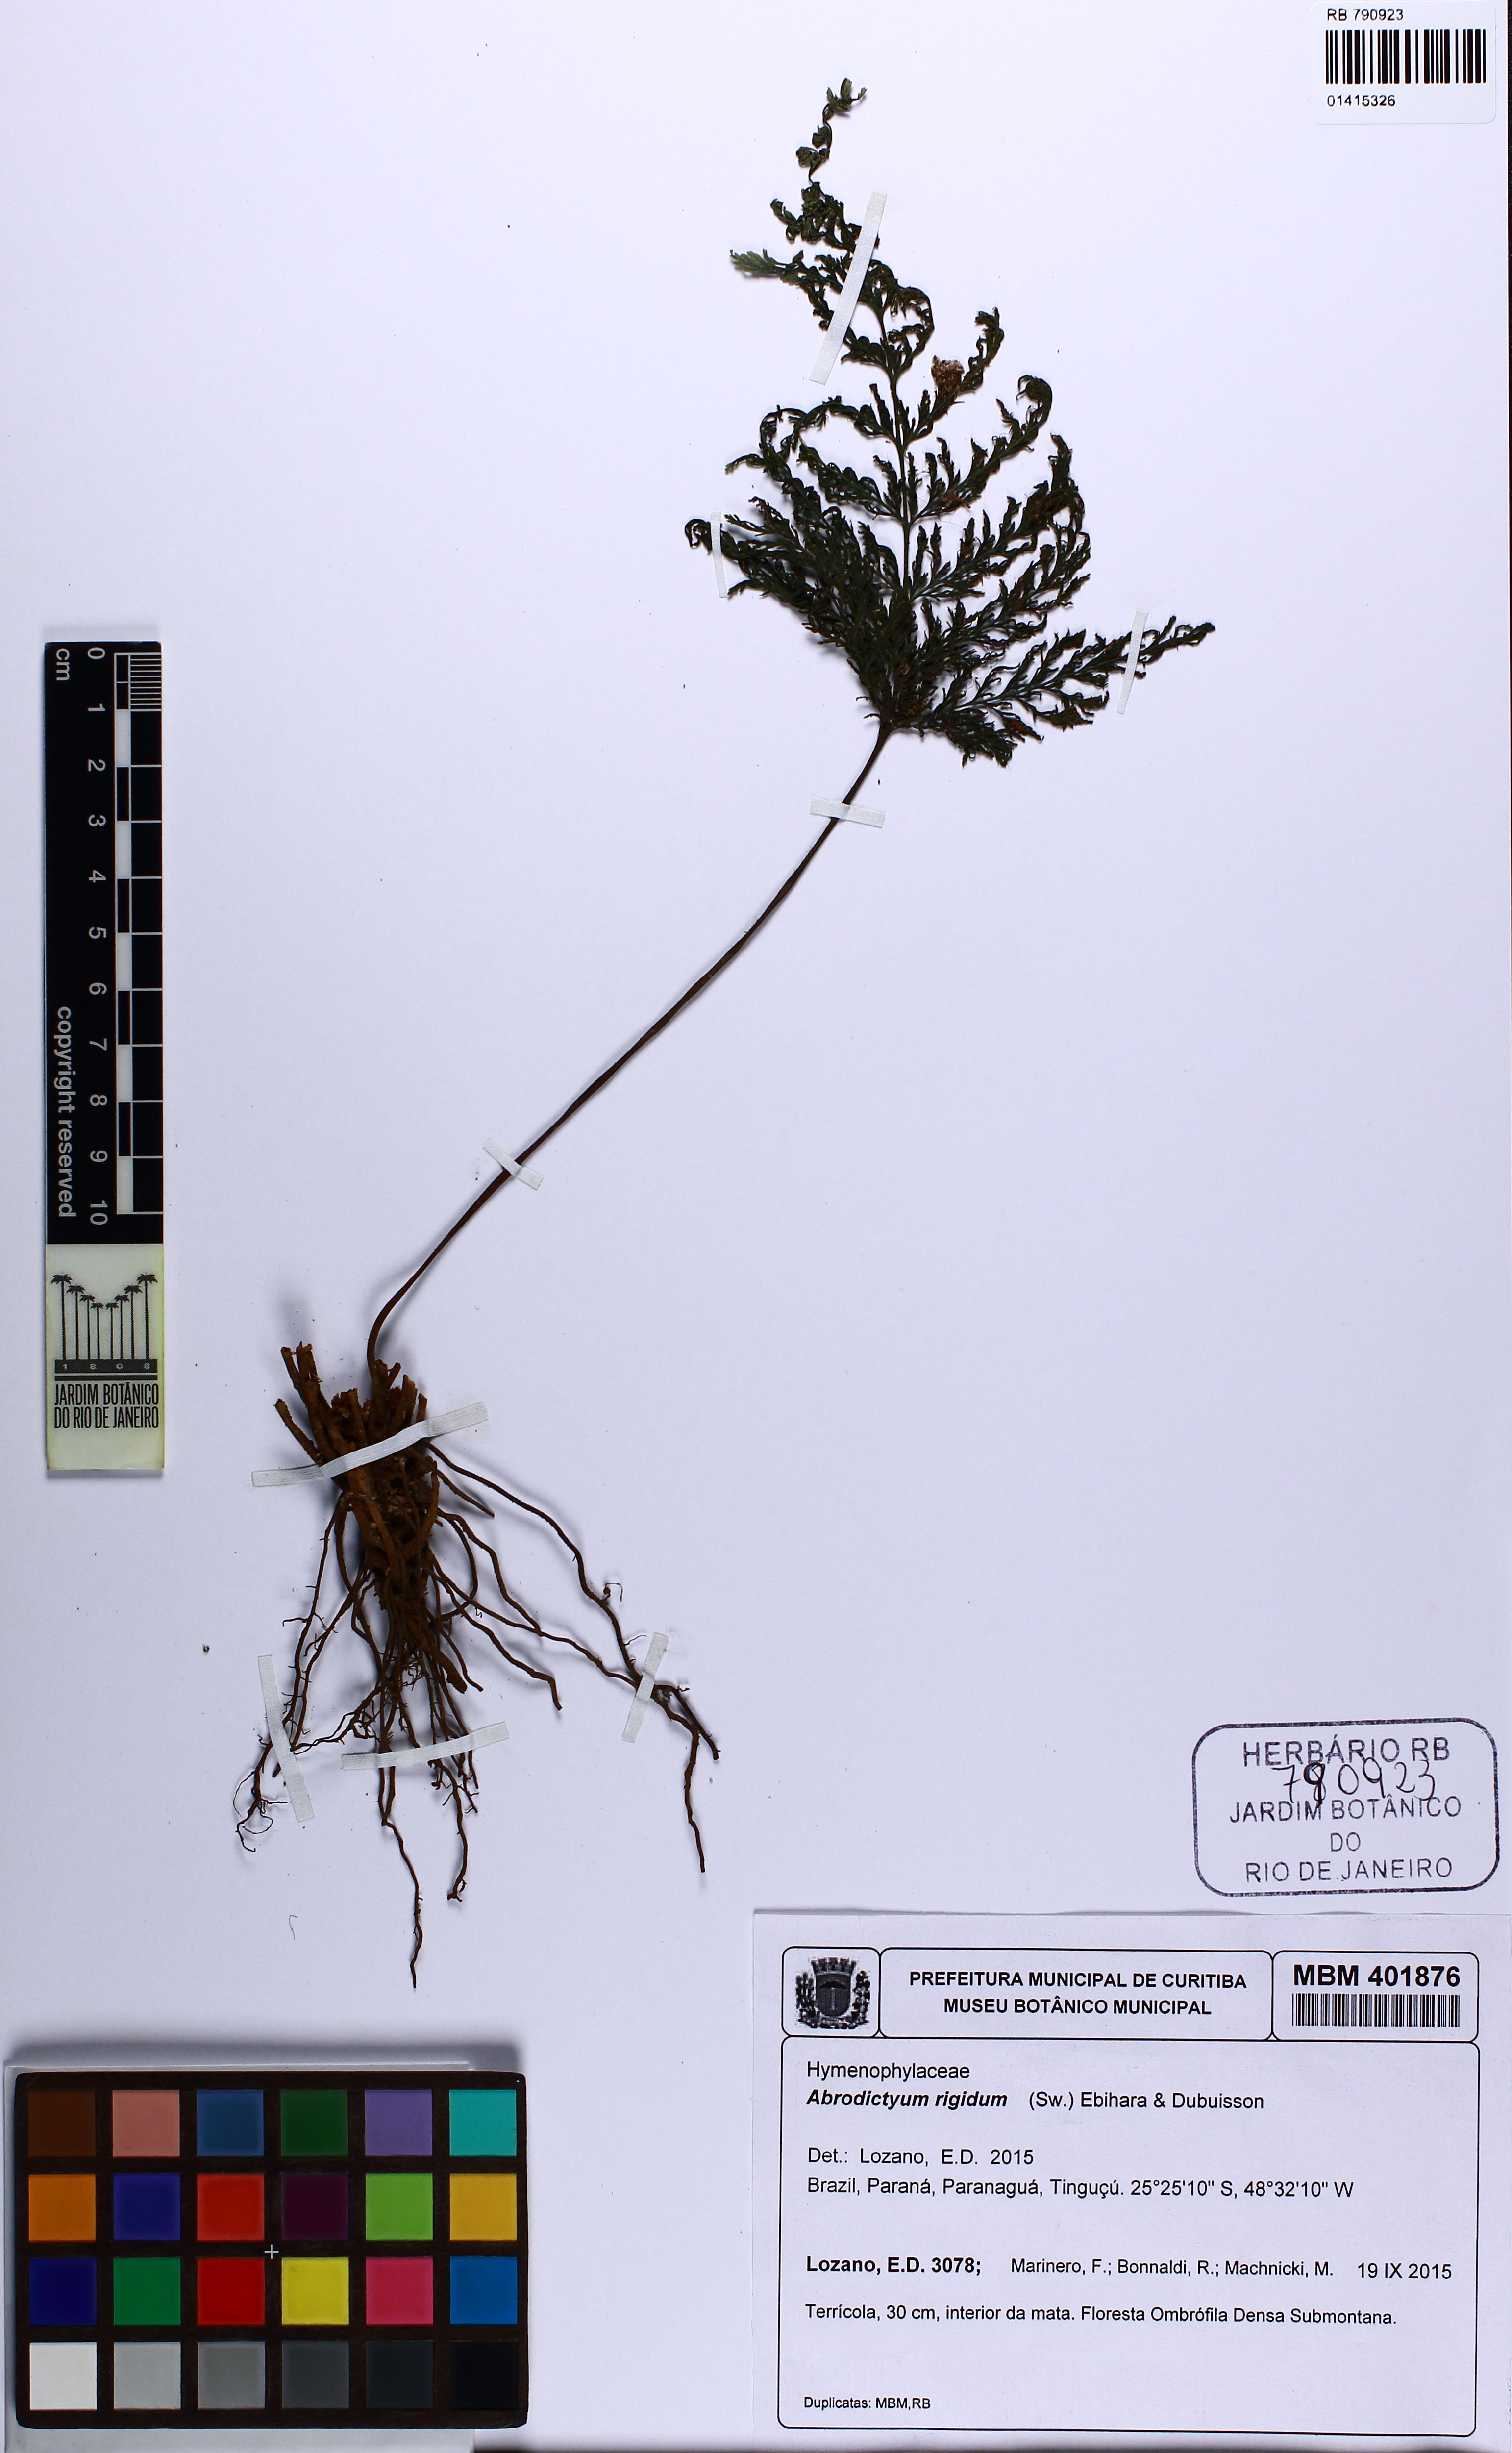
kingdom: Plantae
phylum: Tracheophyta
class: Polypodiopsida
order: Hymenophyllales
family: Hymenophyllaceae
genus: Abrodictyum
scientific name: Abrodictyum rigidum
